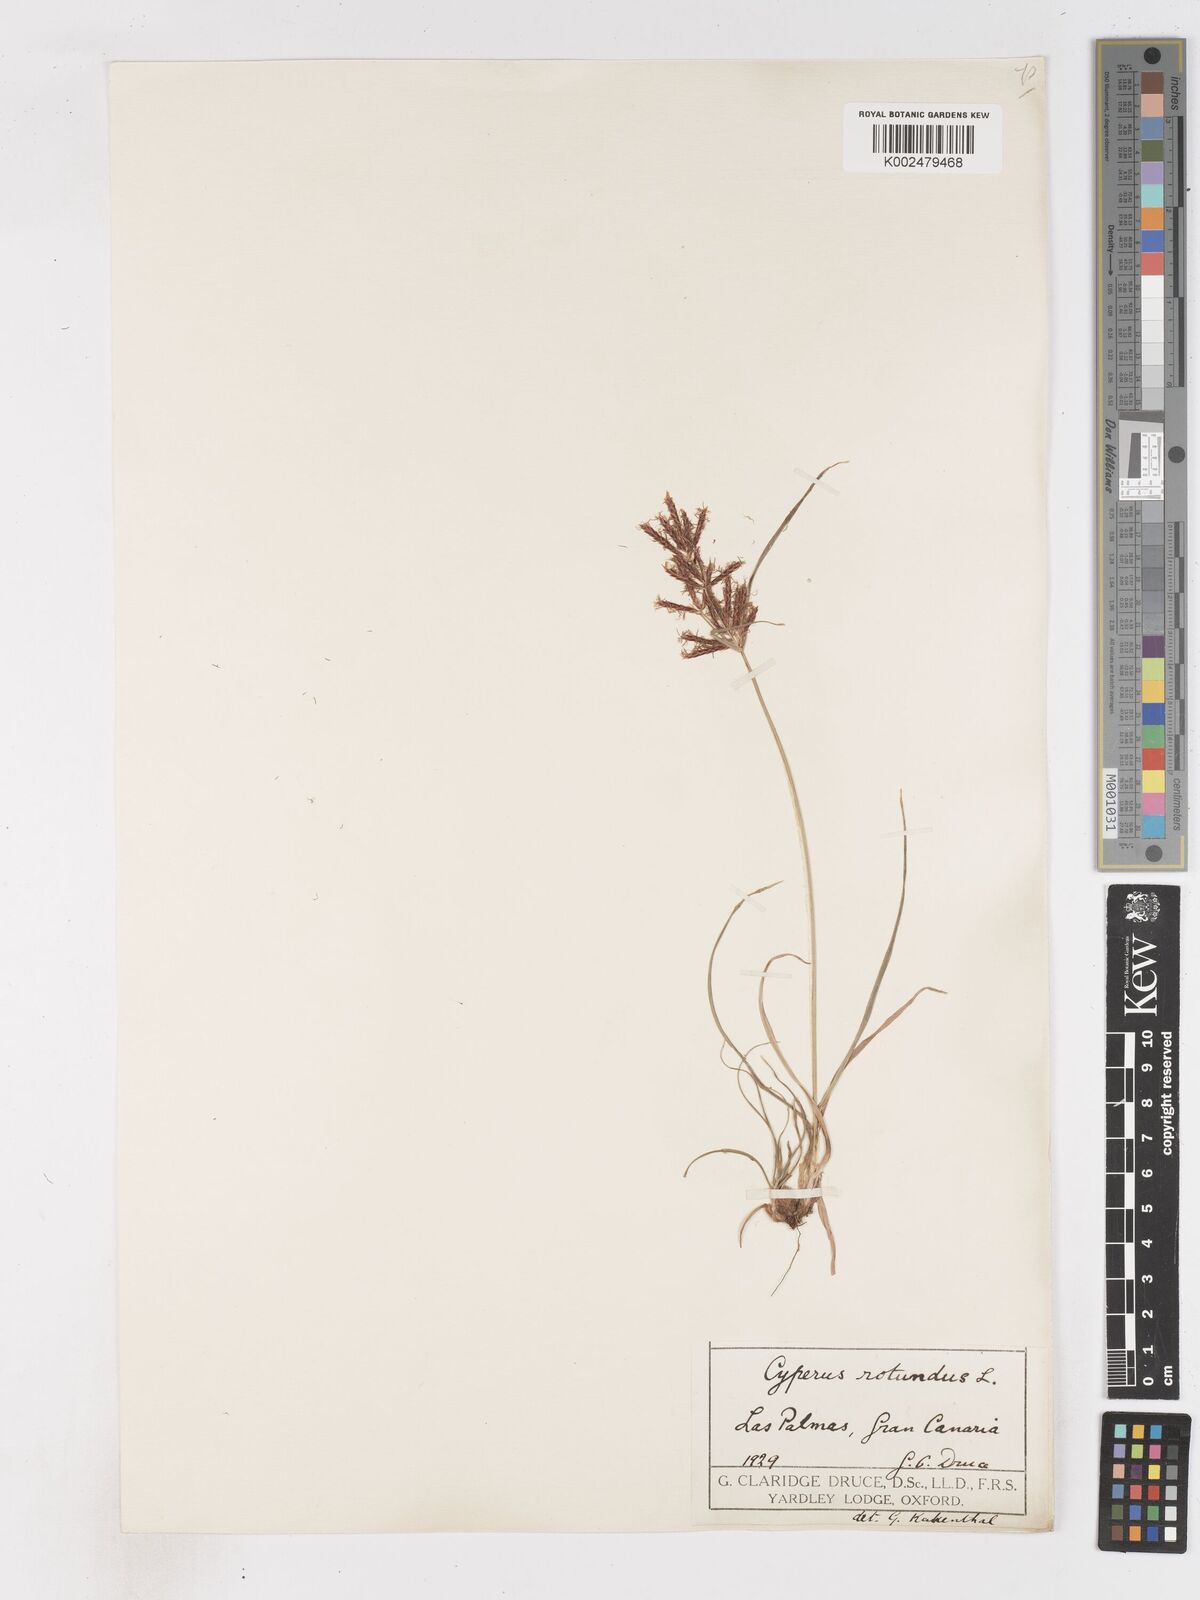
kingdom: Plantae
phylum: Tracheophyta
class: Liliopsida
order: Poales
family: Cyperaceae
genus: Cyperus
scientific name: Cyperus rotundus
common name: Nutgrass
